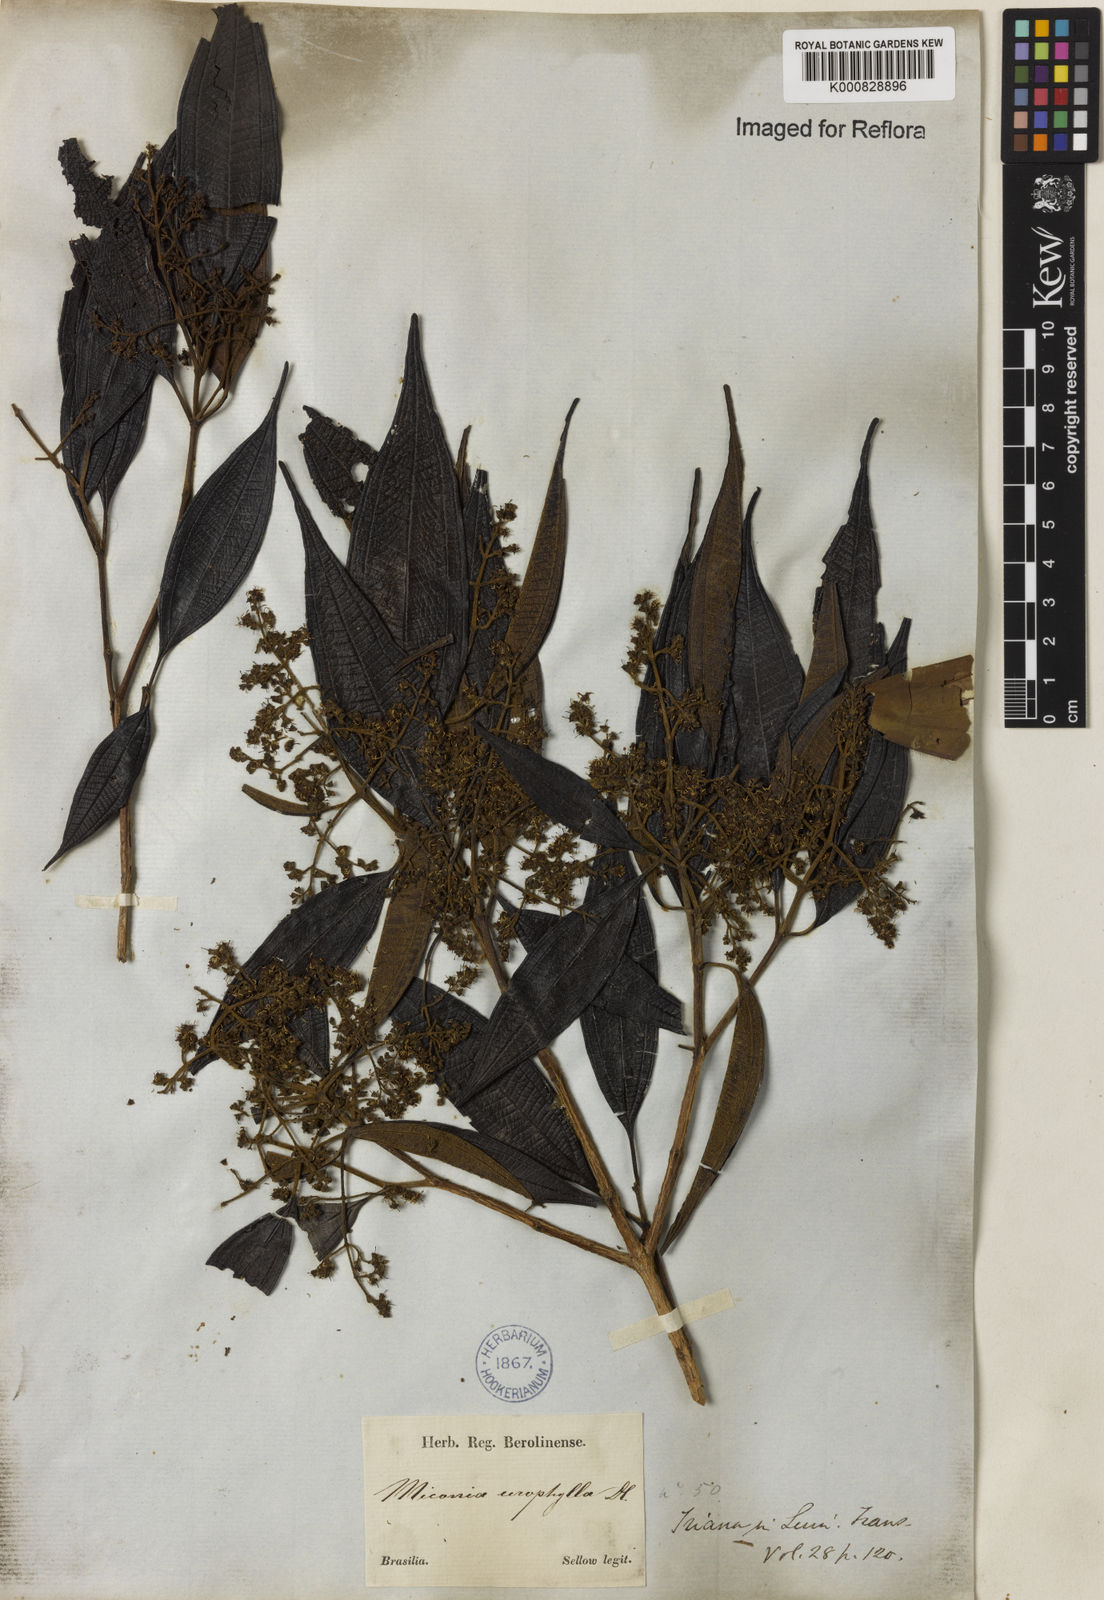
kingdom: Plantae
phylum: Tracheophyta
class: Magnoliopsida
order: Myrtales
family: Melastomataceae
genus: Miconia
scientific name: Miconia urophylla
